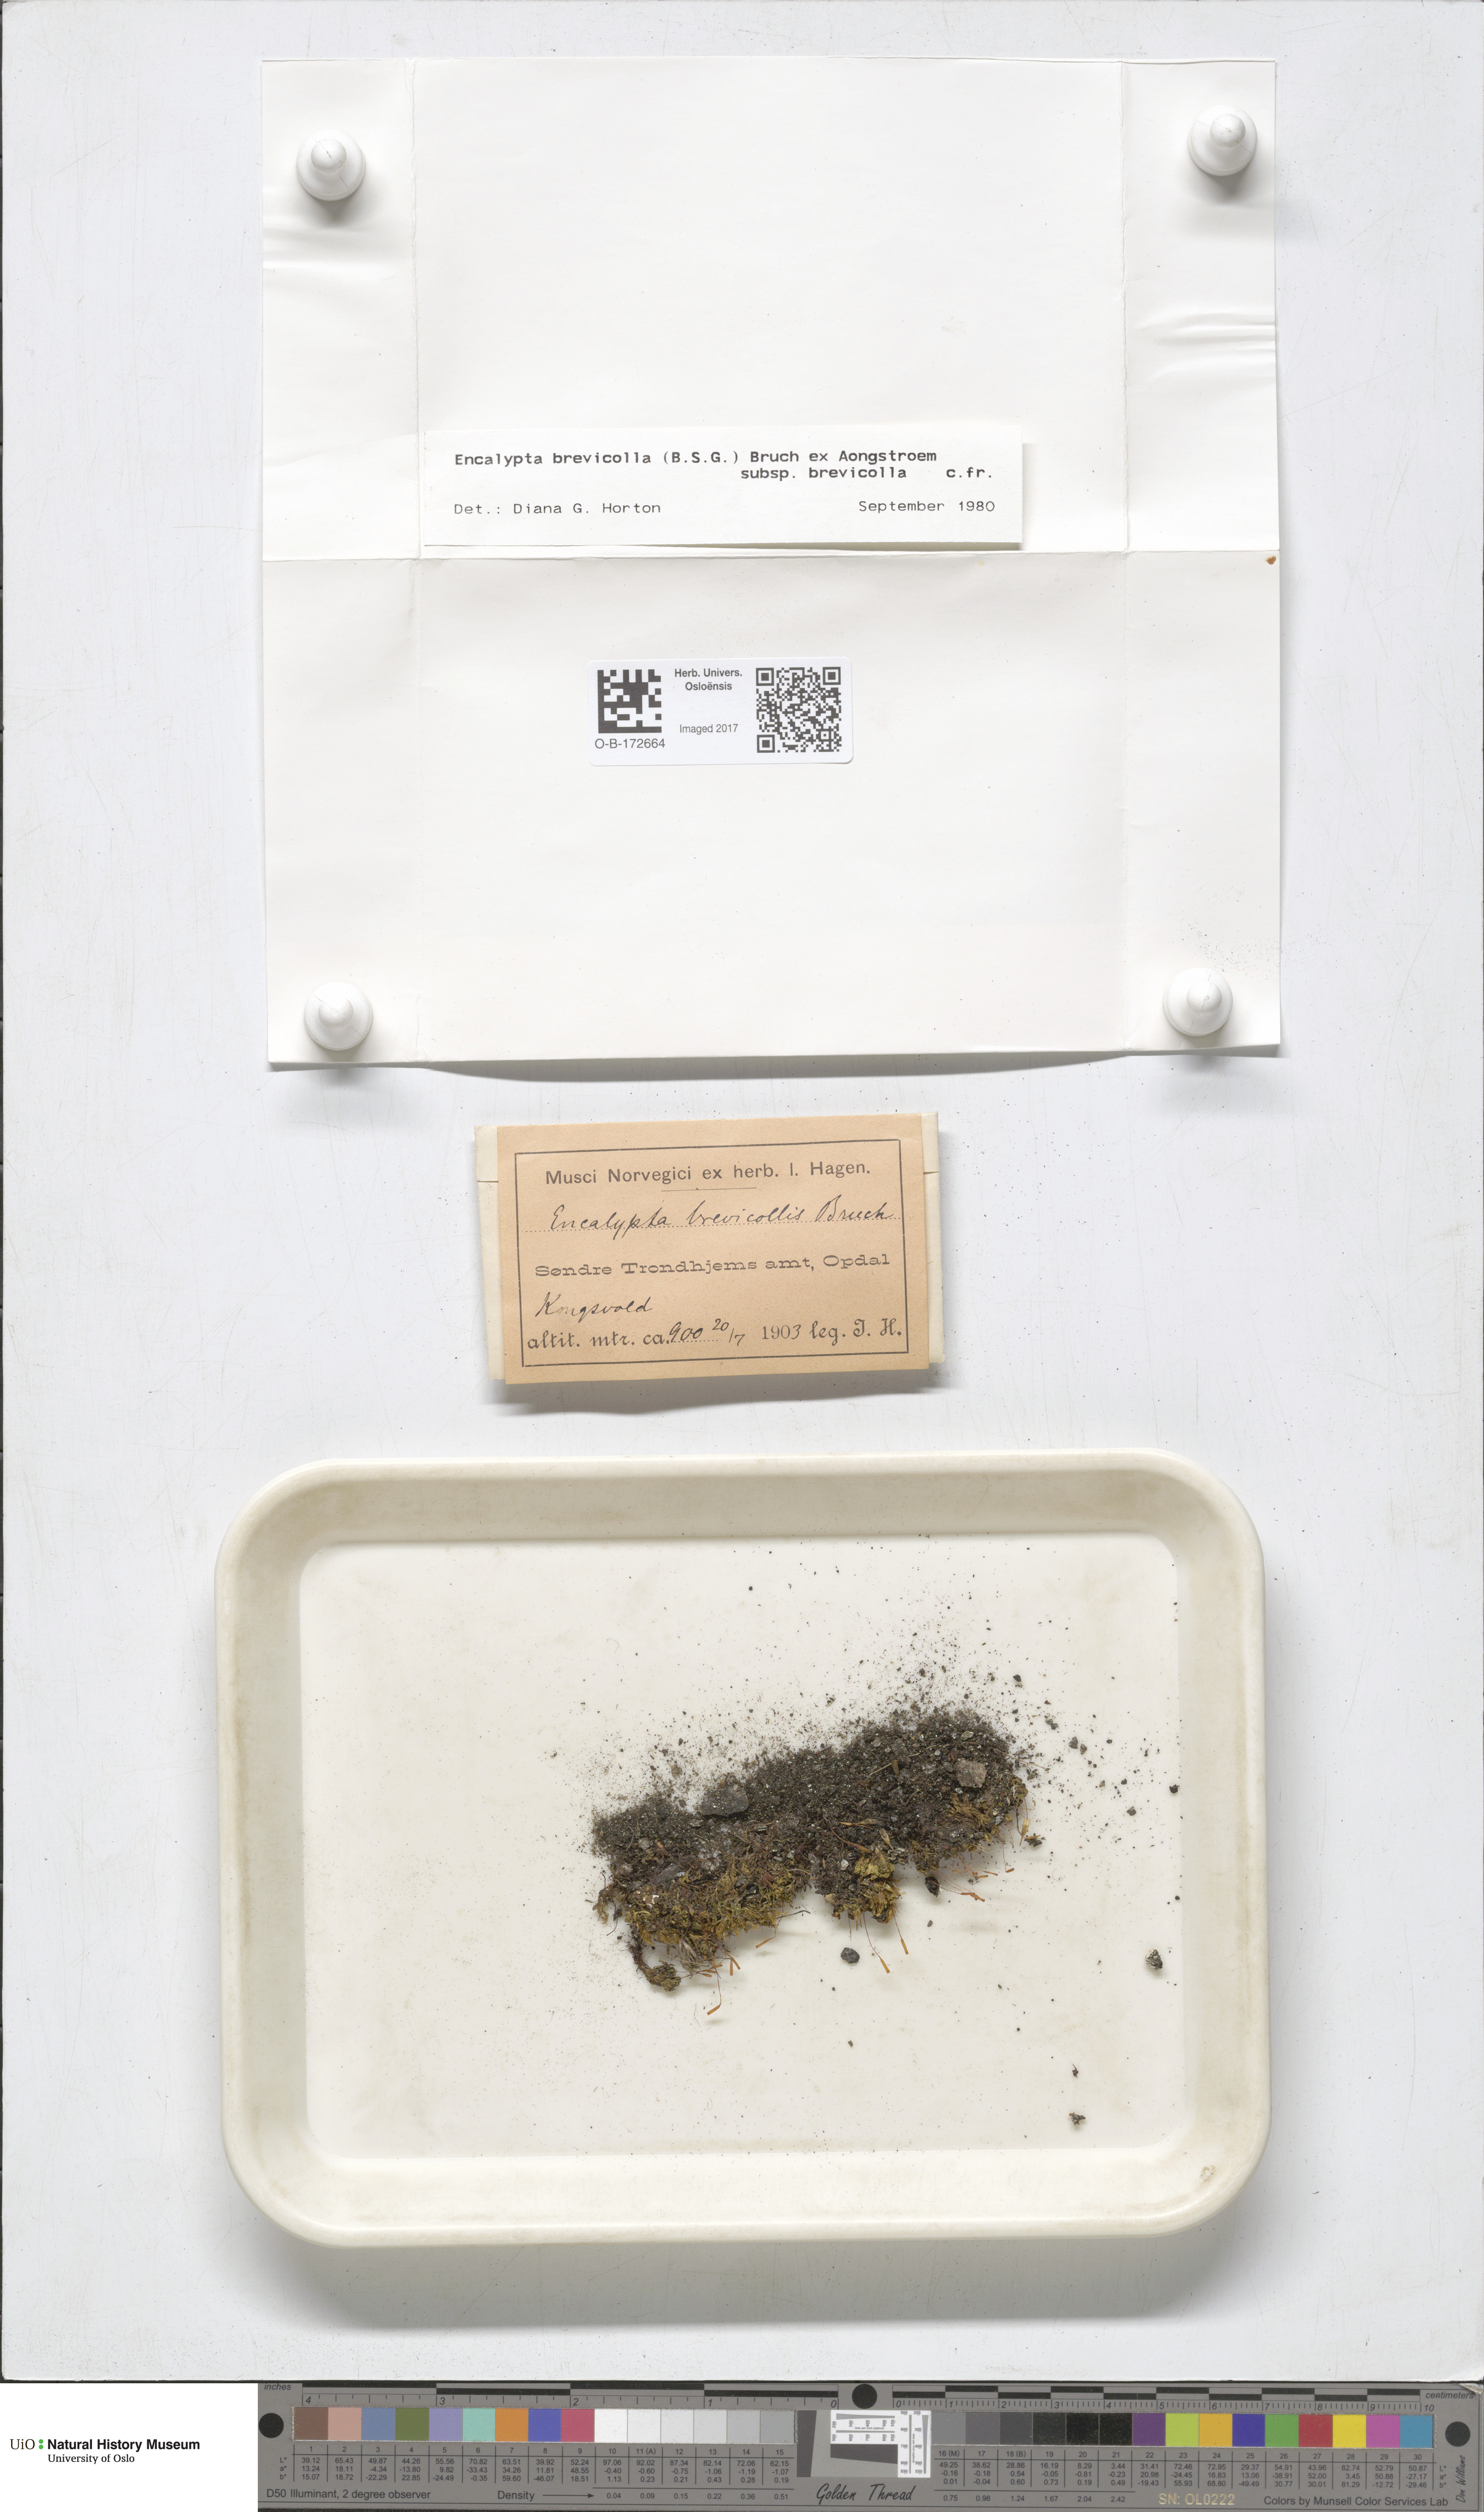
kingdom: Plantae
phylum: Bryophyta
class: Bryopsida
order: Encalyptales
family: Encalyptaceae
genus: Encalypta
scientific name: Encalypta brevicolla
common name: White-mouthed extinguisher-moss
